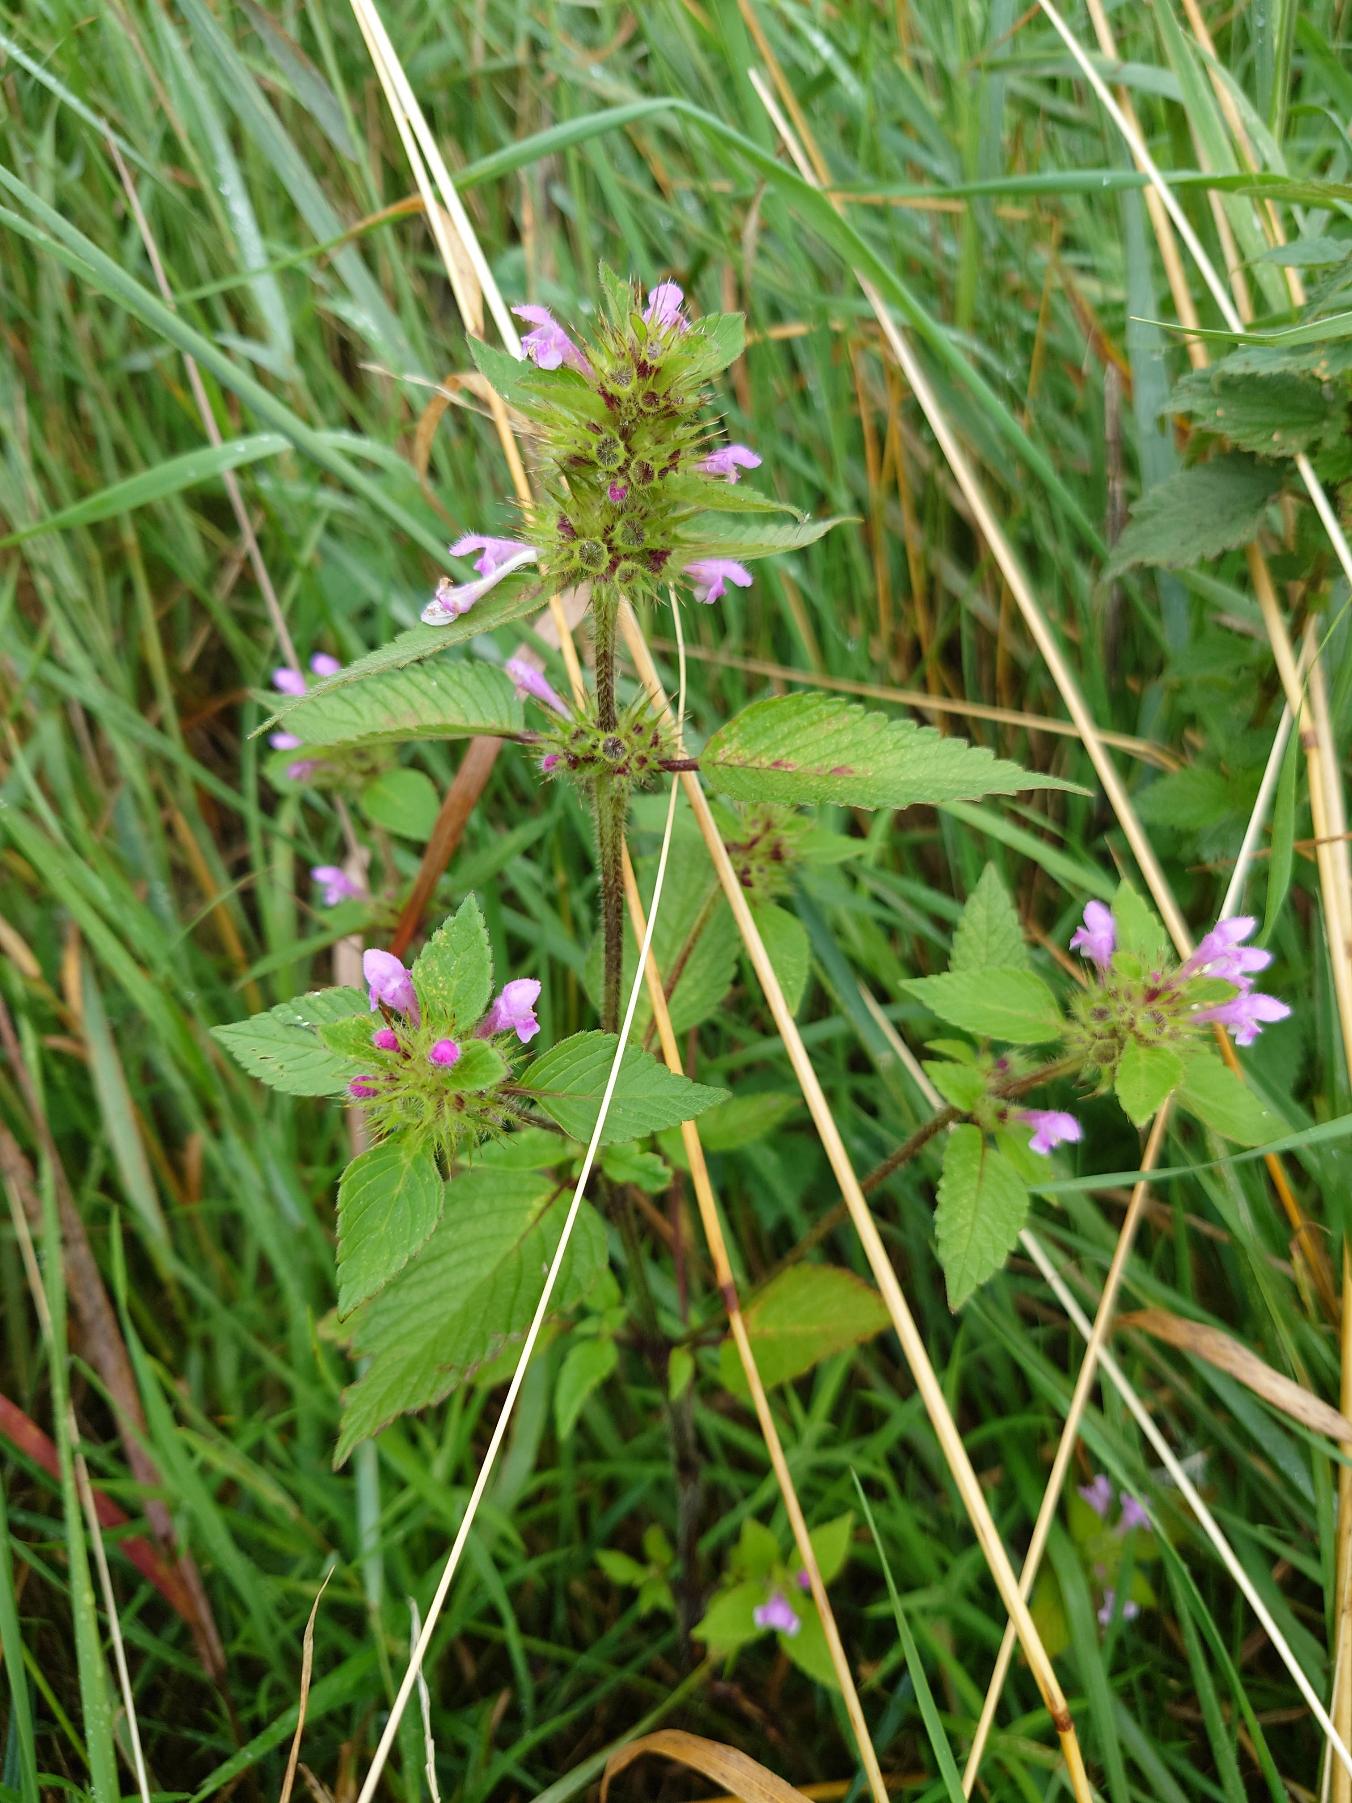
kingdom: Plantae
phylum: Tracheophyta
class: Magnoliopsida
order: Lamiales
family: Lamiaceae
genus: Galeopsis
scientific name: Galeopsis
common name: Hanekroslægten
